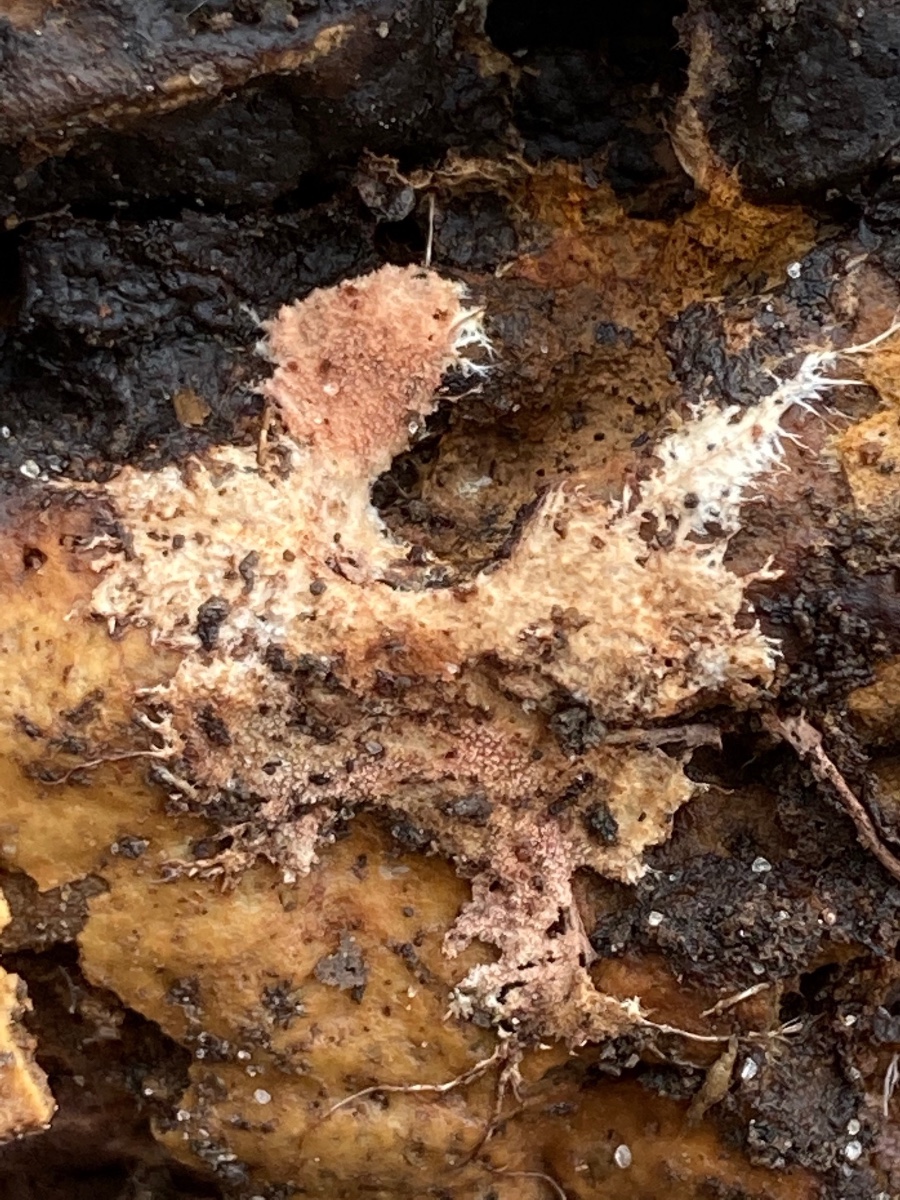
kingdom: Fungi
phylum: Basidiomycota
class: Agaricomycetes
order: Polyporales
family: Steccherinaceae
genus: Steccherinum
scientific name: Steccherinum fimbriatum
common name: trådet skønpig
